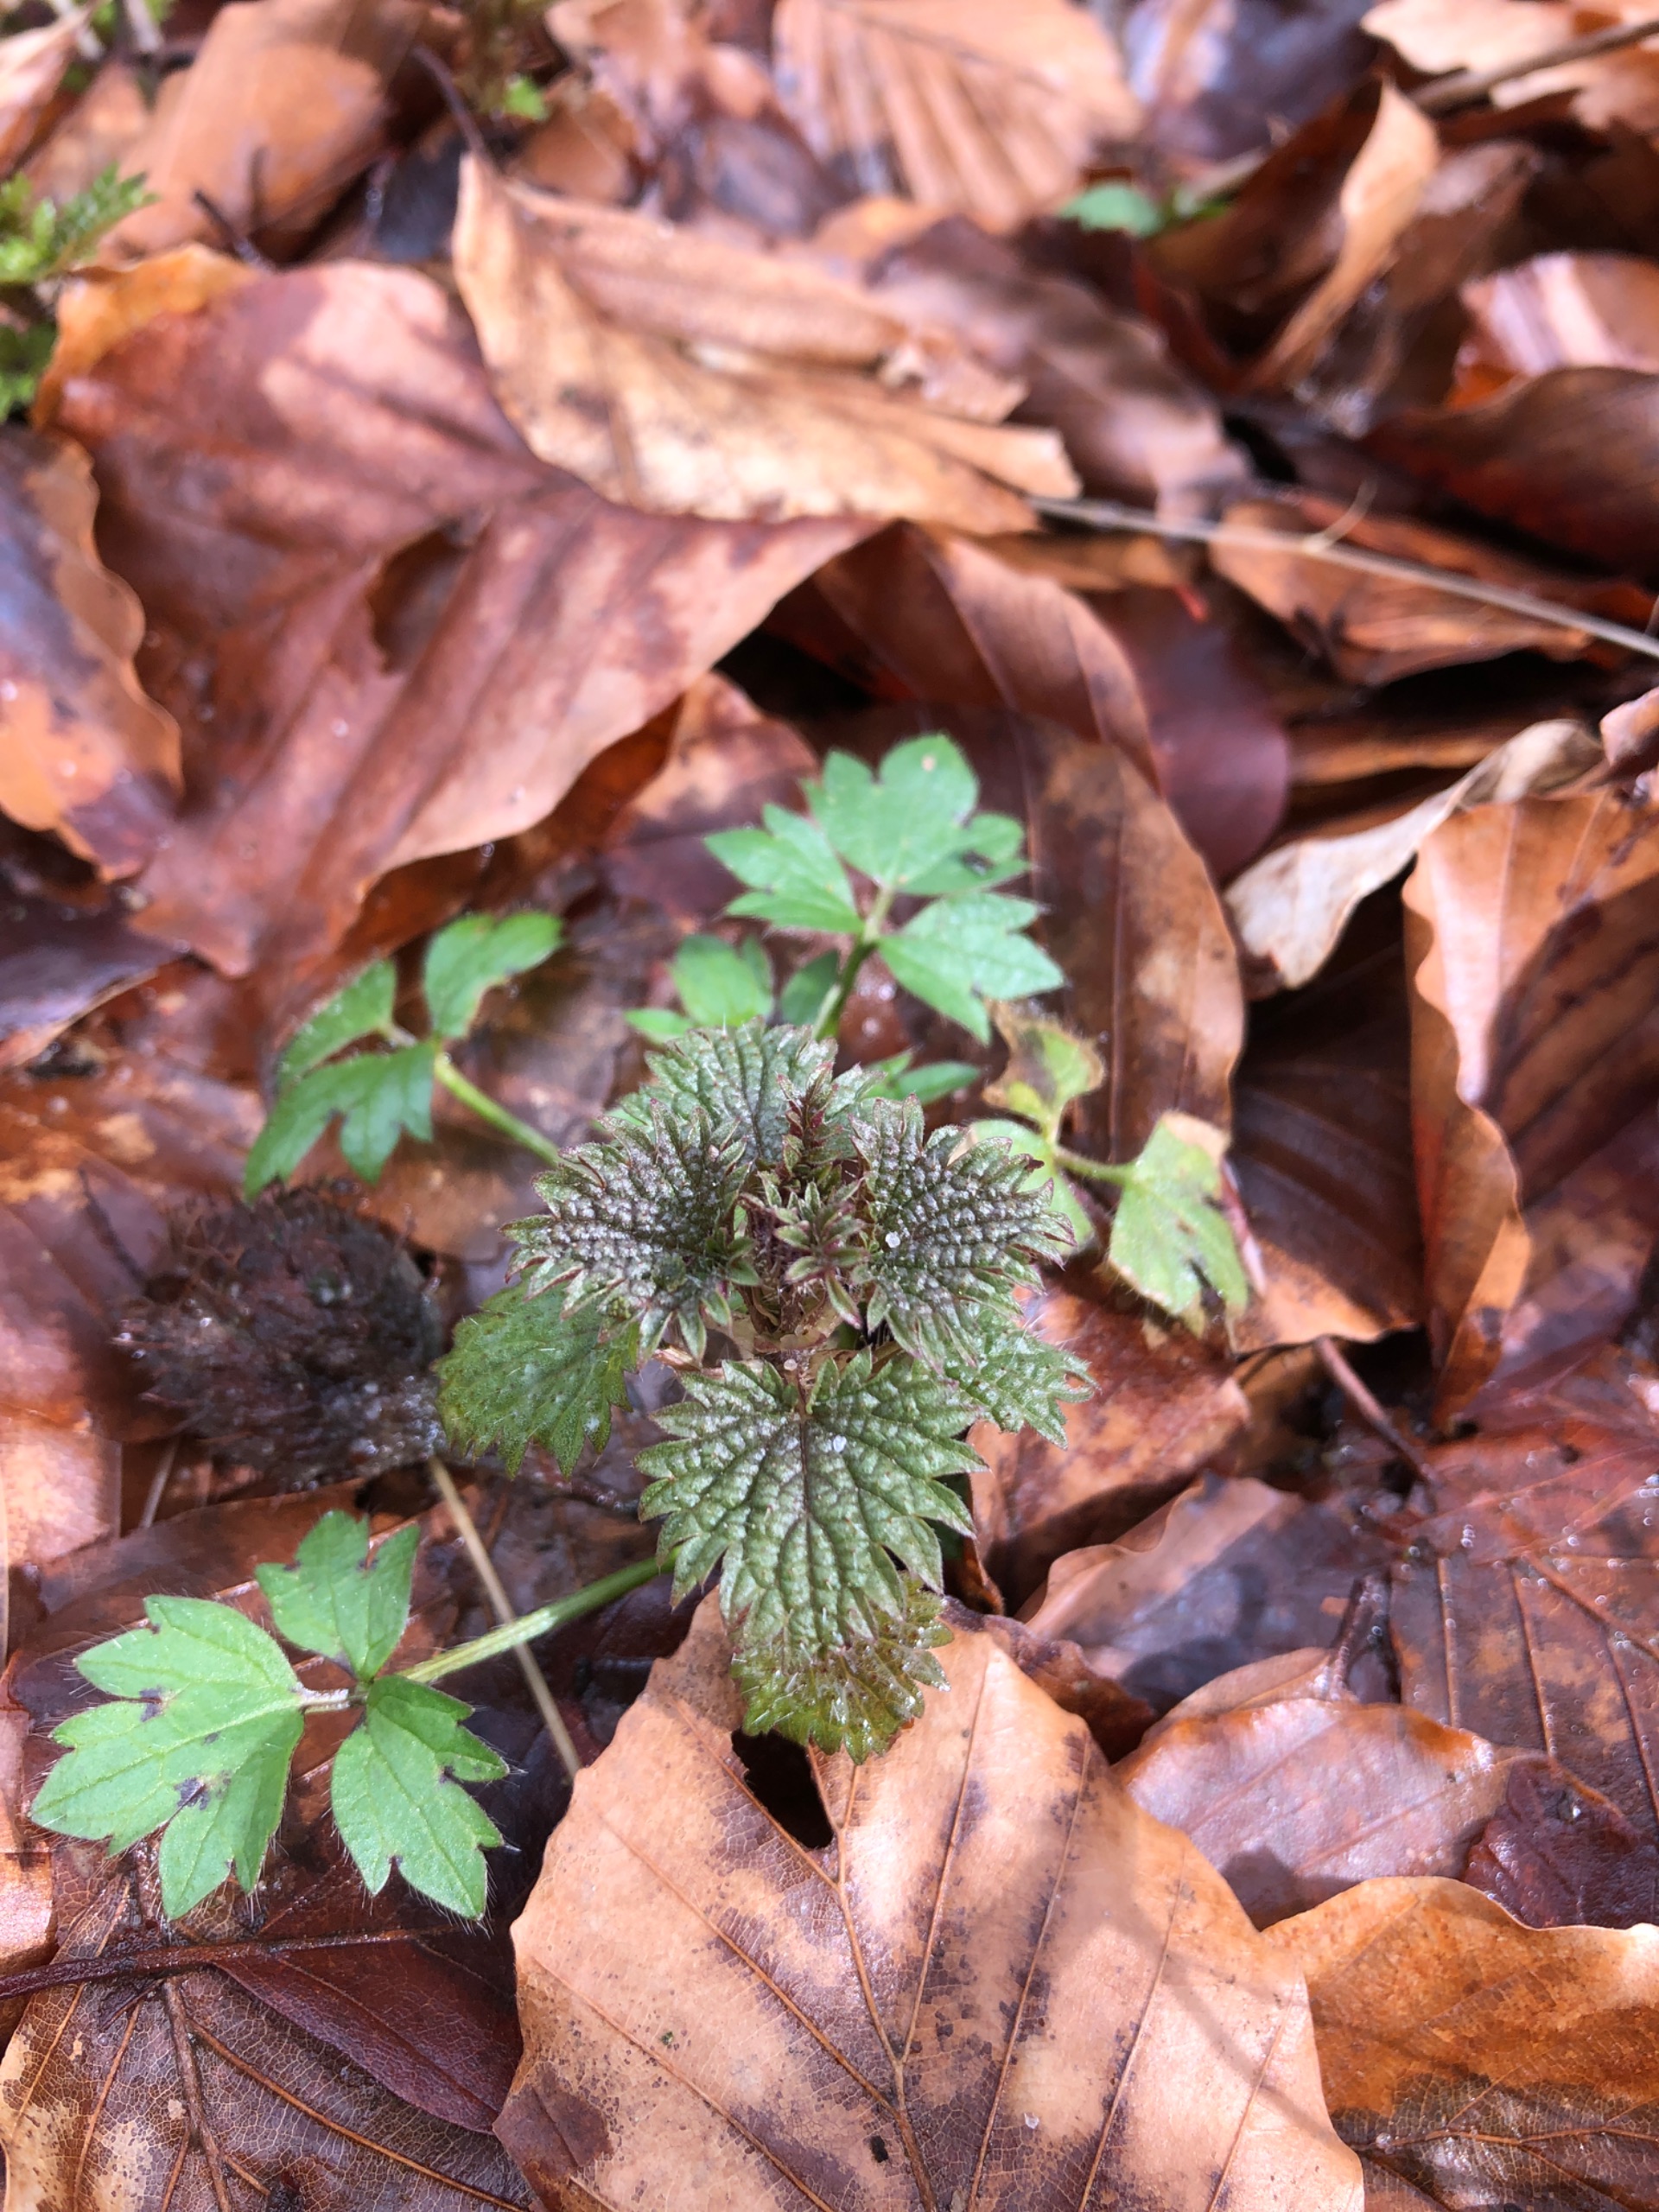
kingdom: Plantae
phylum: Tracheophyta
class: Magnoliopsida
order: Rosales
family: Urticaceae
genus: Urtica
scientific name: Urtica dioica
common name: Stor nælde
